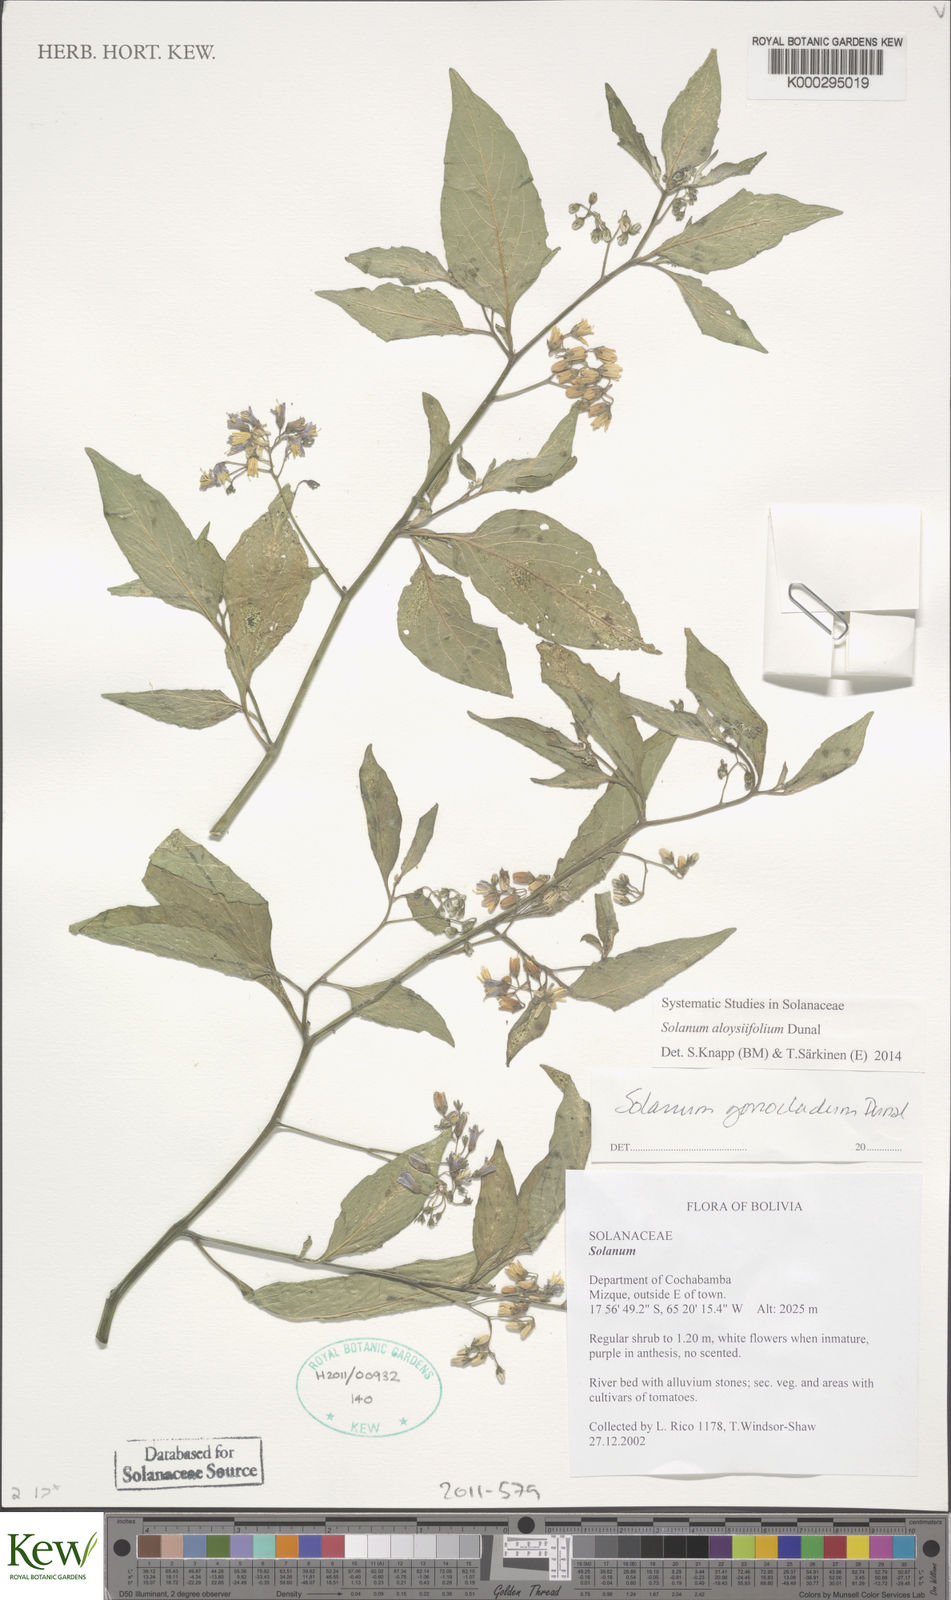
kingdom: Plantae
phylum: Tracheophyta
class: Magnoliopsida
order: Solanales
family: Solanaceae
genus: Solanum
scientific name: Solanum gonocladum
